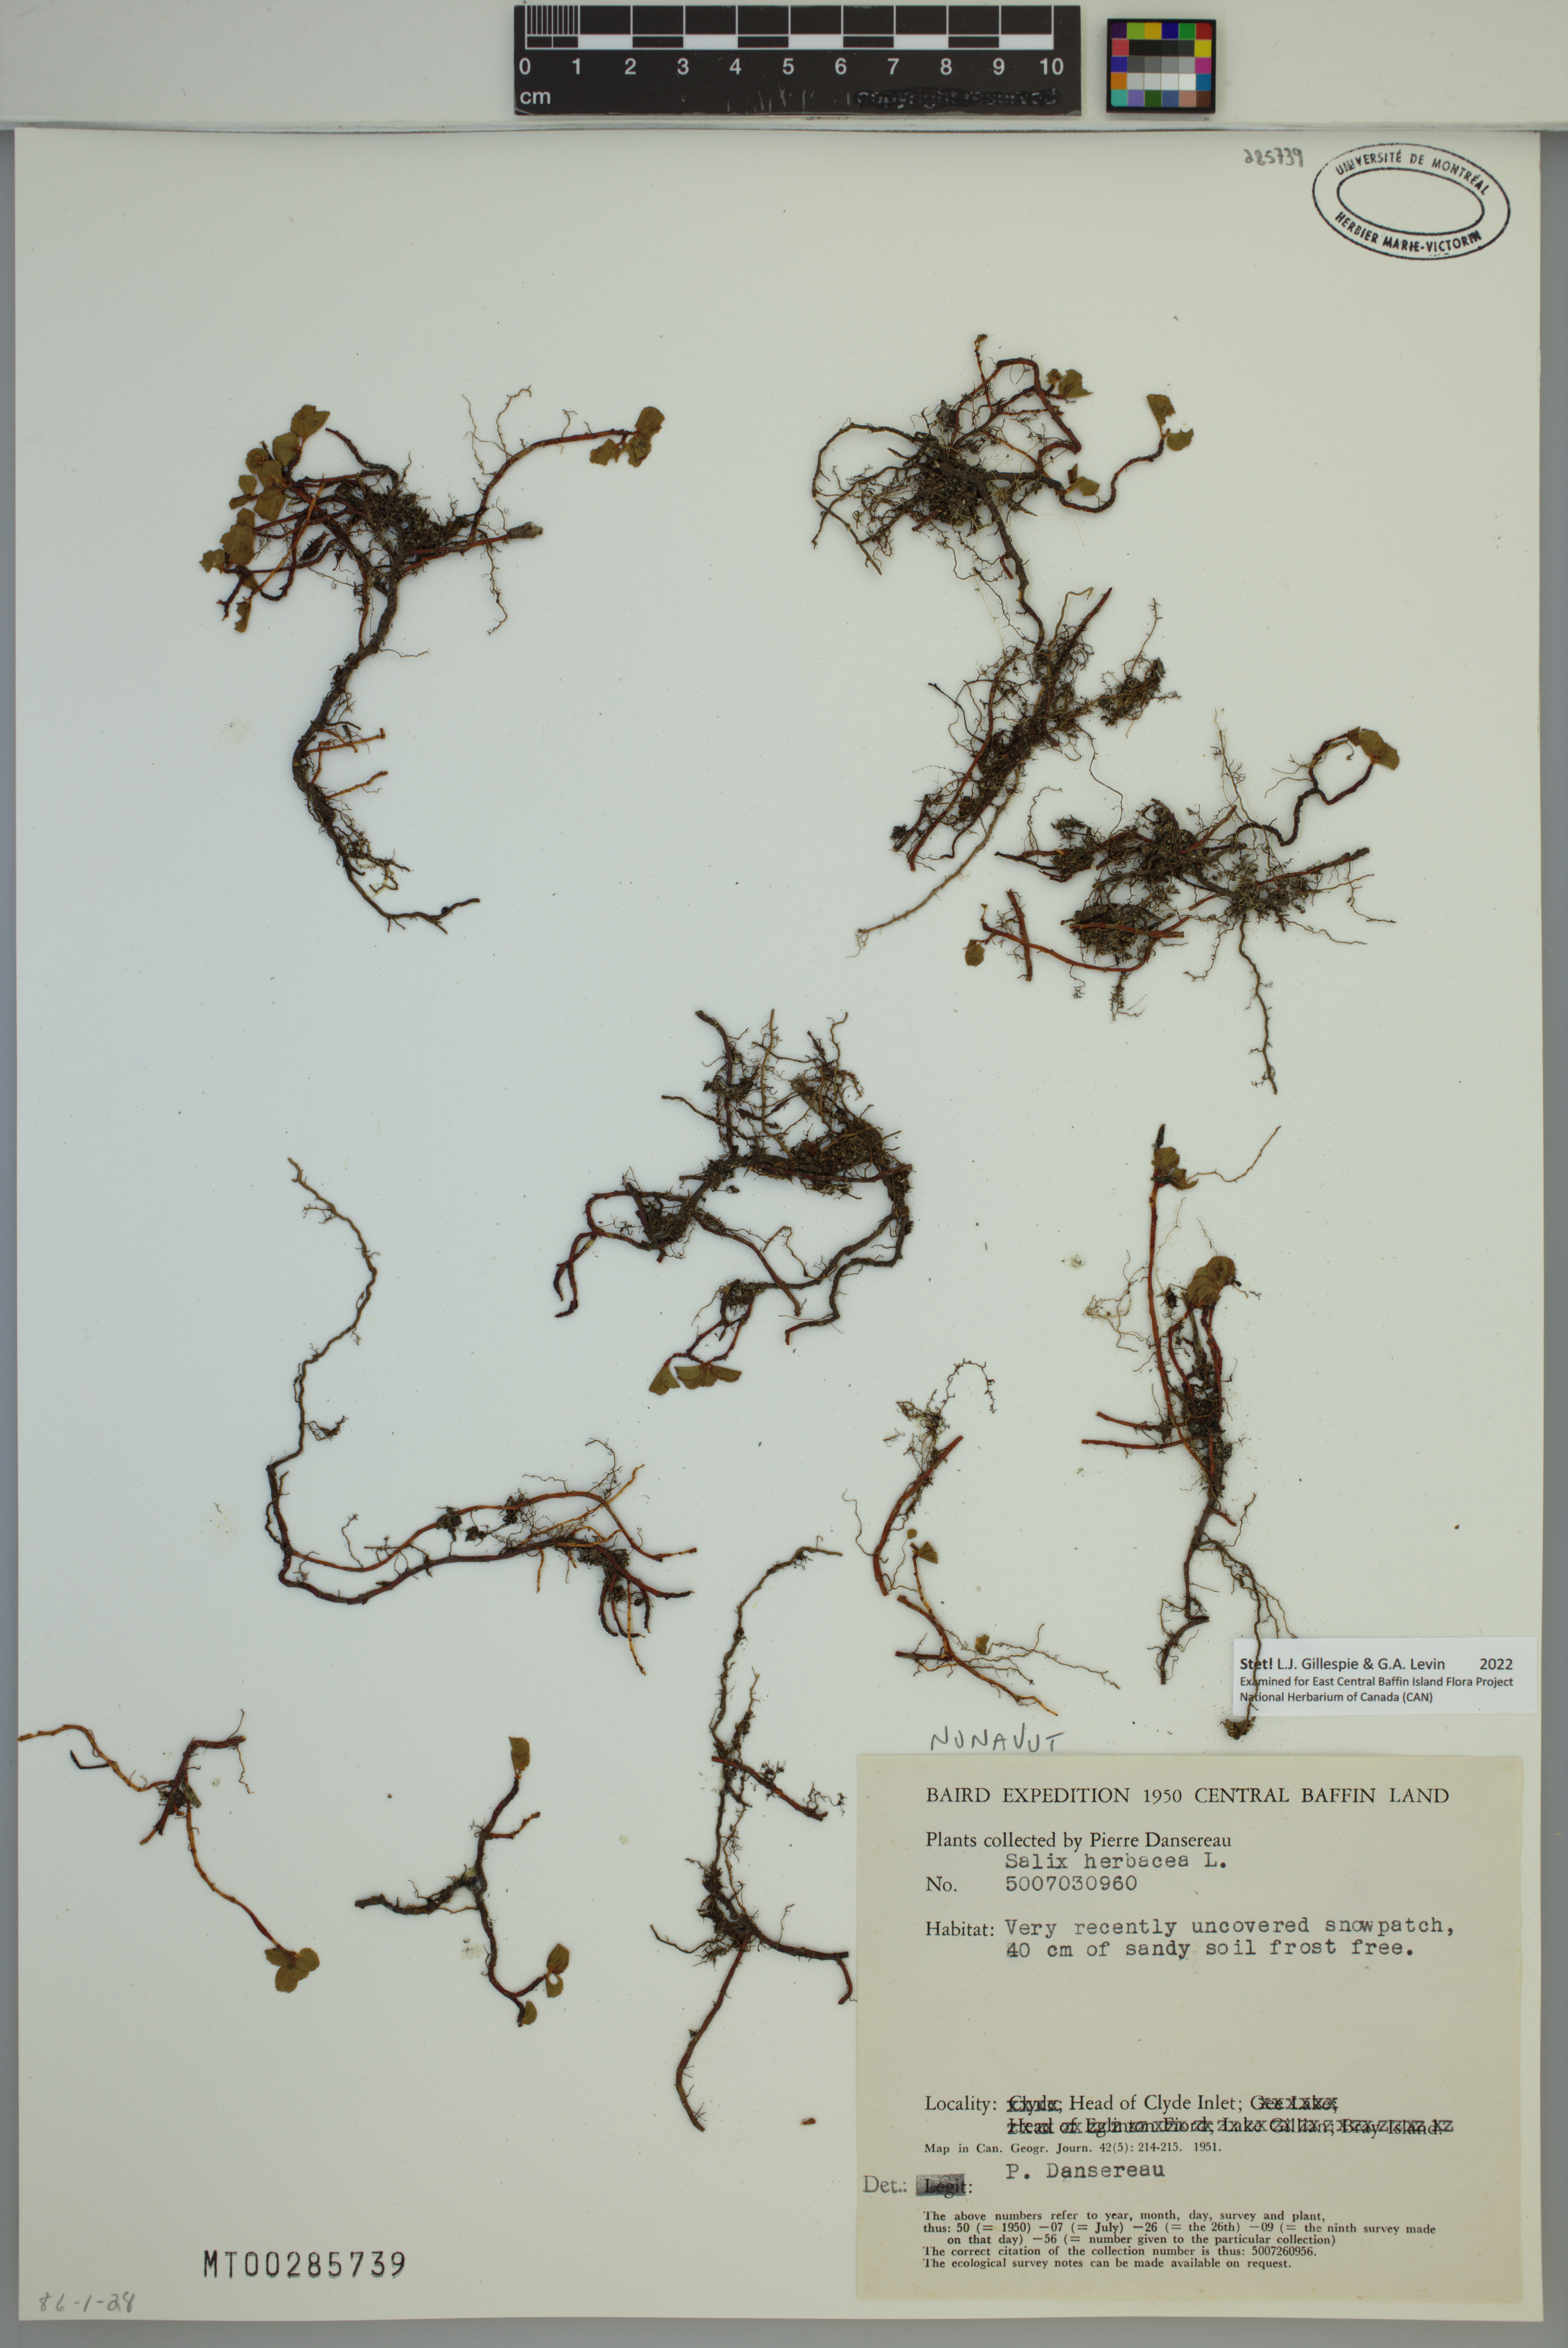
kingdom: Plantae
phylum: Tracheophyta
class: Magnoliopsida
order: Malpighiales
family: Salicaceae
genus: Salix
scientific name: Salix herbacea
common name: Dwarf willow
